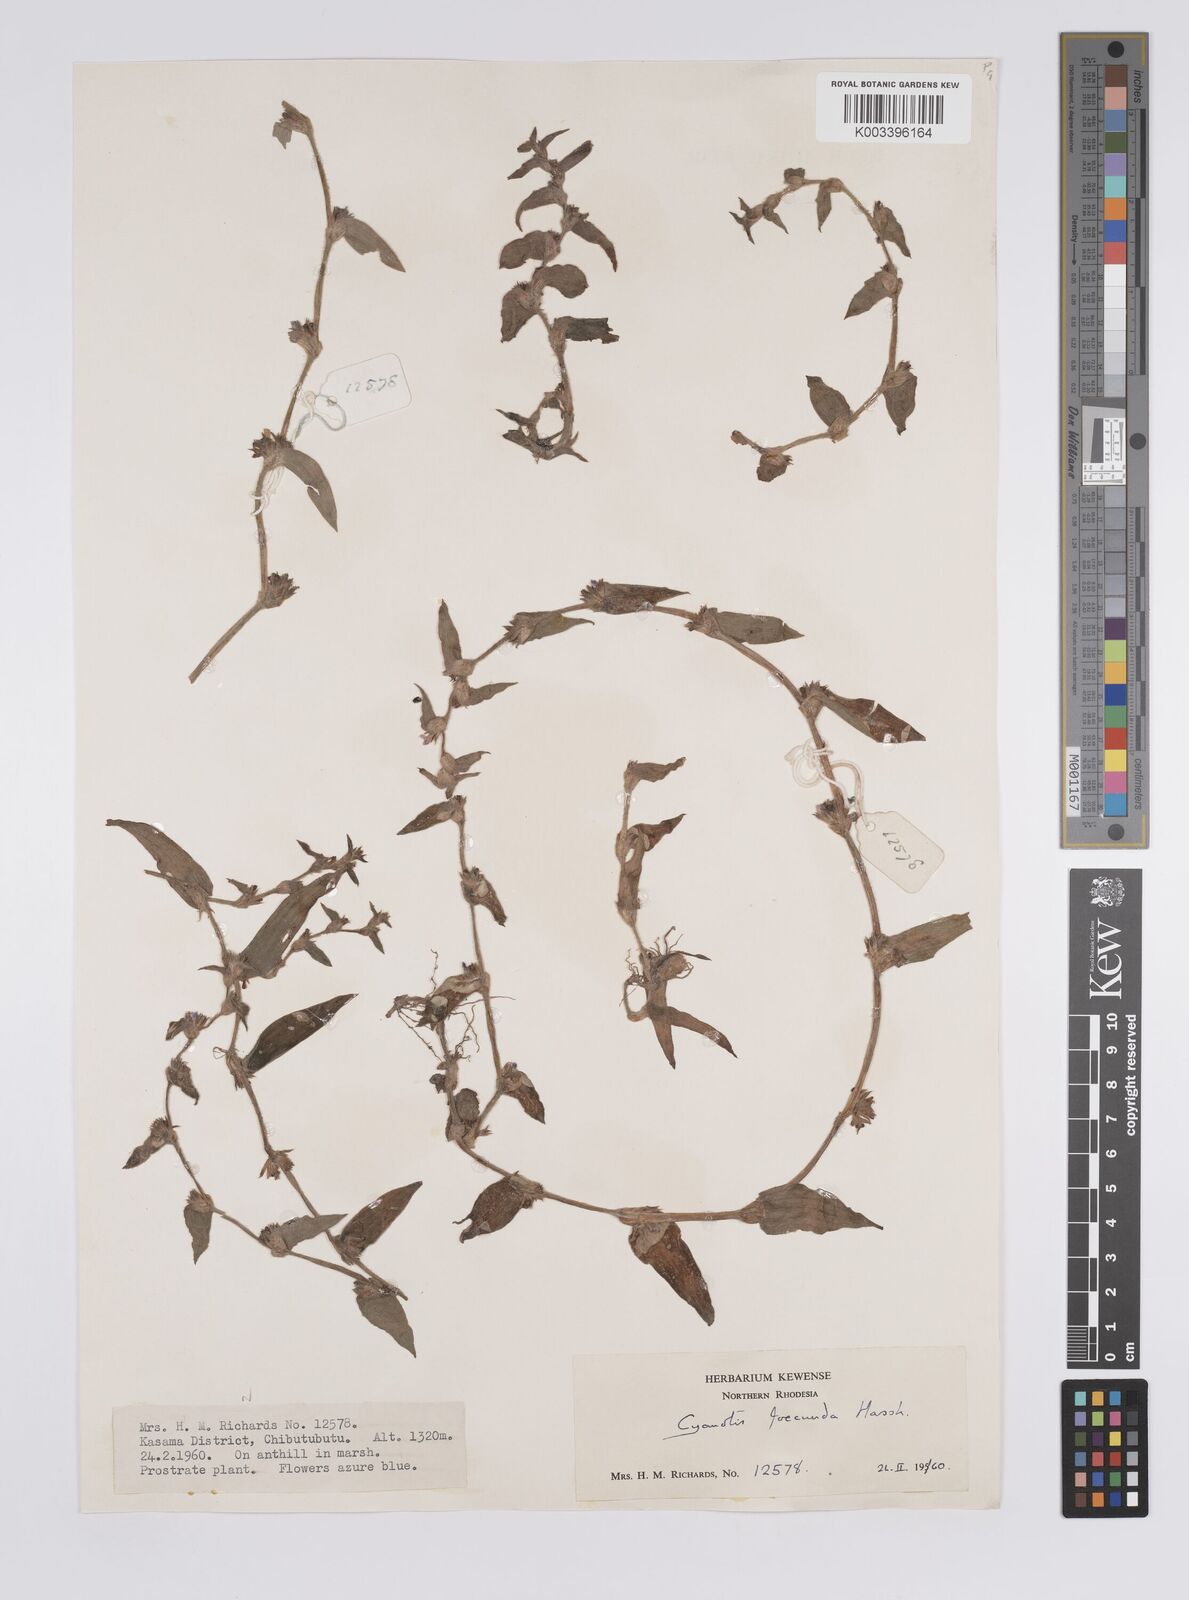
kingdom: Plantae
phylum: Tracheophyta
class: Liliopsida
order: Commelinales
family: Commelinaceae
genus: Cyanotis
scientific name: Cyanotis foecunda
